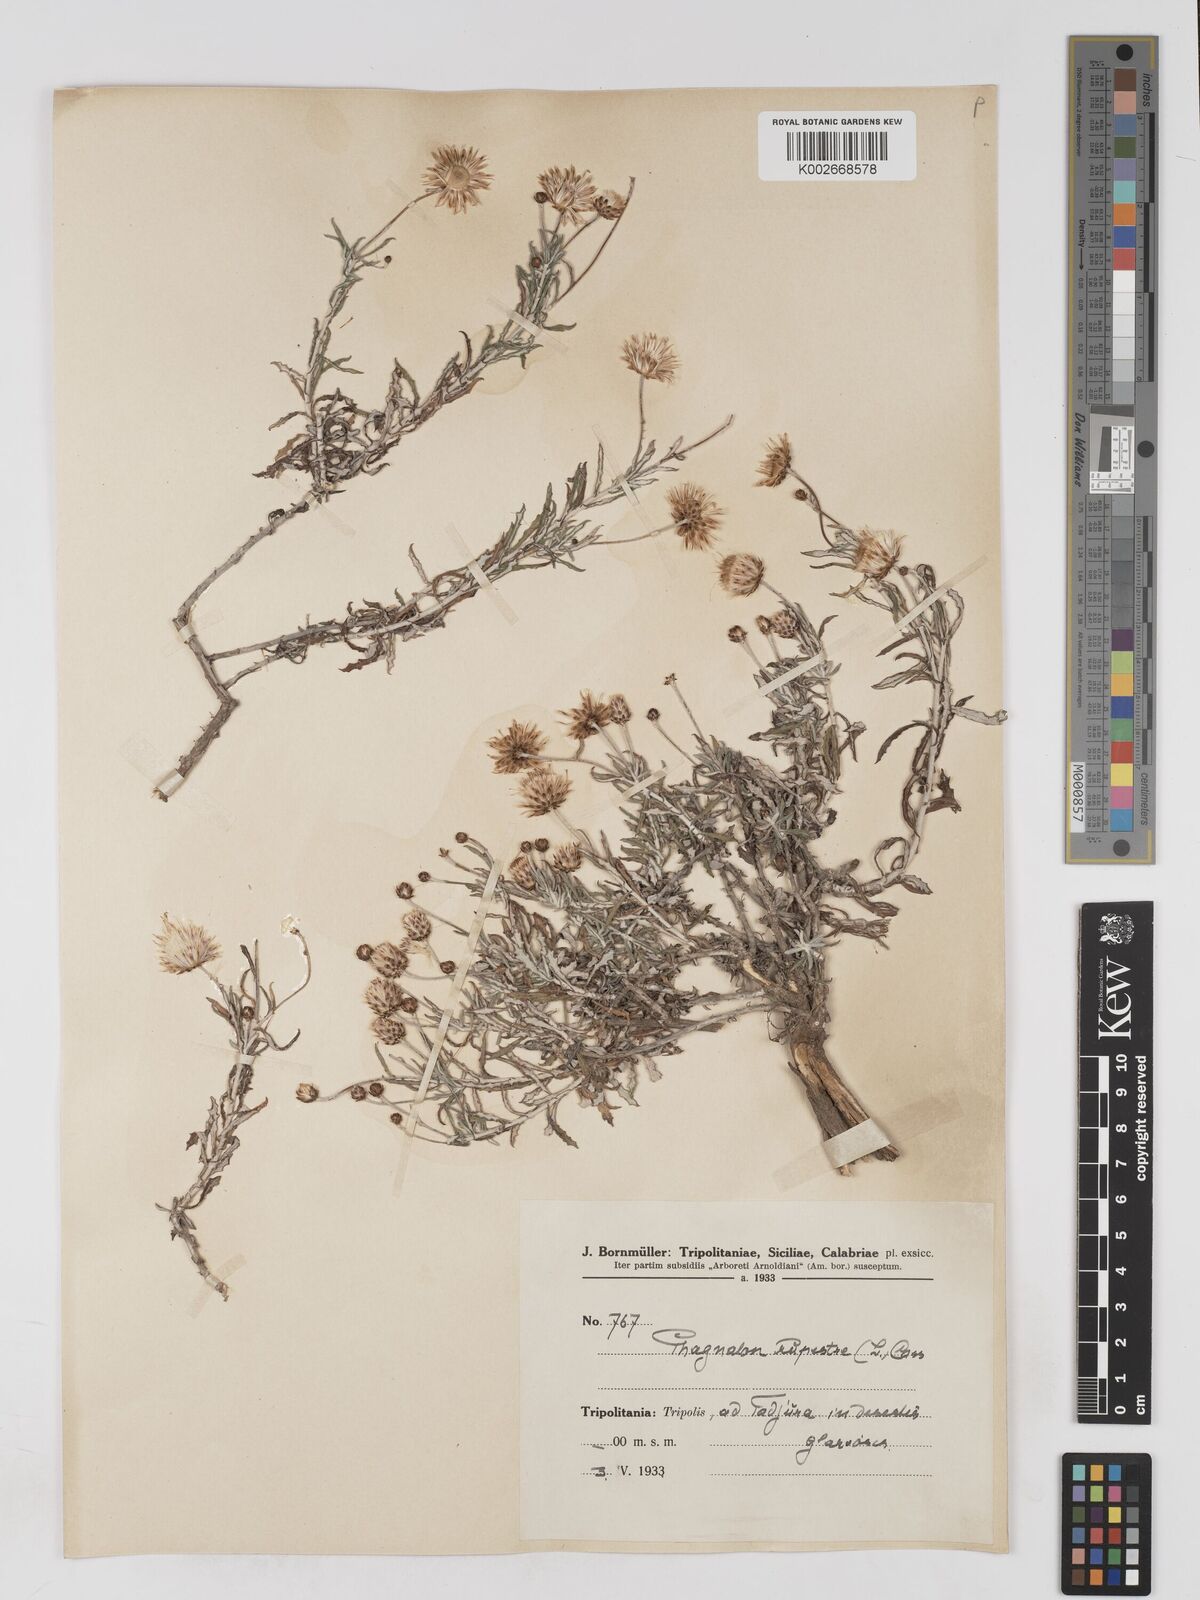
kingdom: Plantae
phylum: Tracheophyta
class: Magnoliopsida
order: Asterales
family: Asteraceae
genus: Phagnalon
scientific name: Phagnalon rupestre
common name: Rock phagnalon
